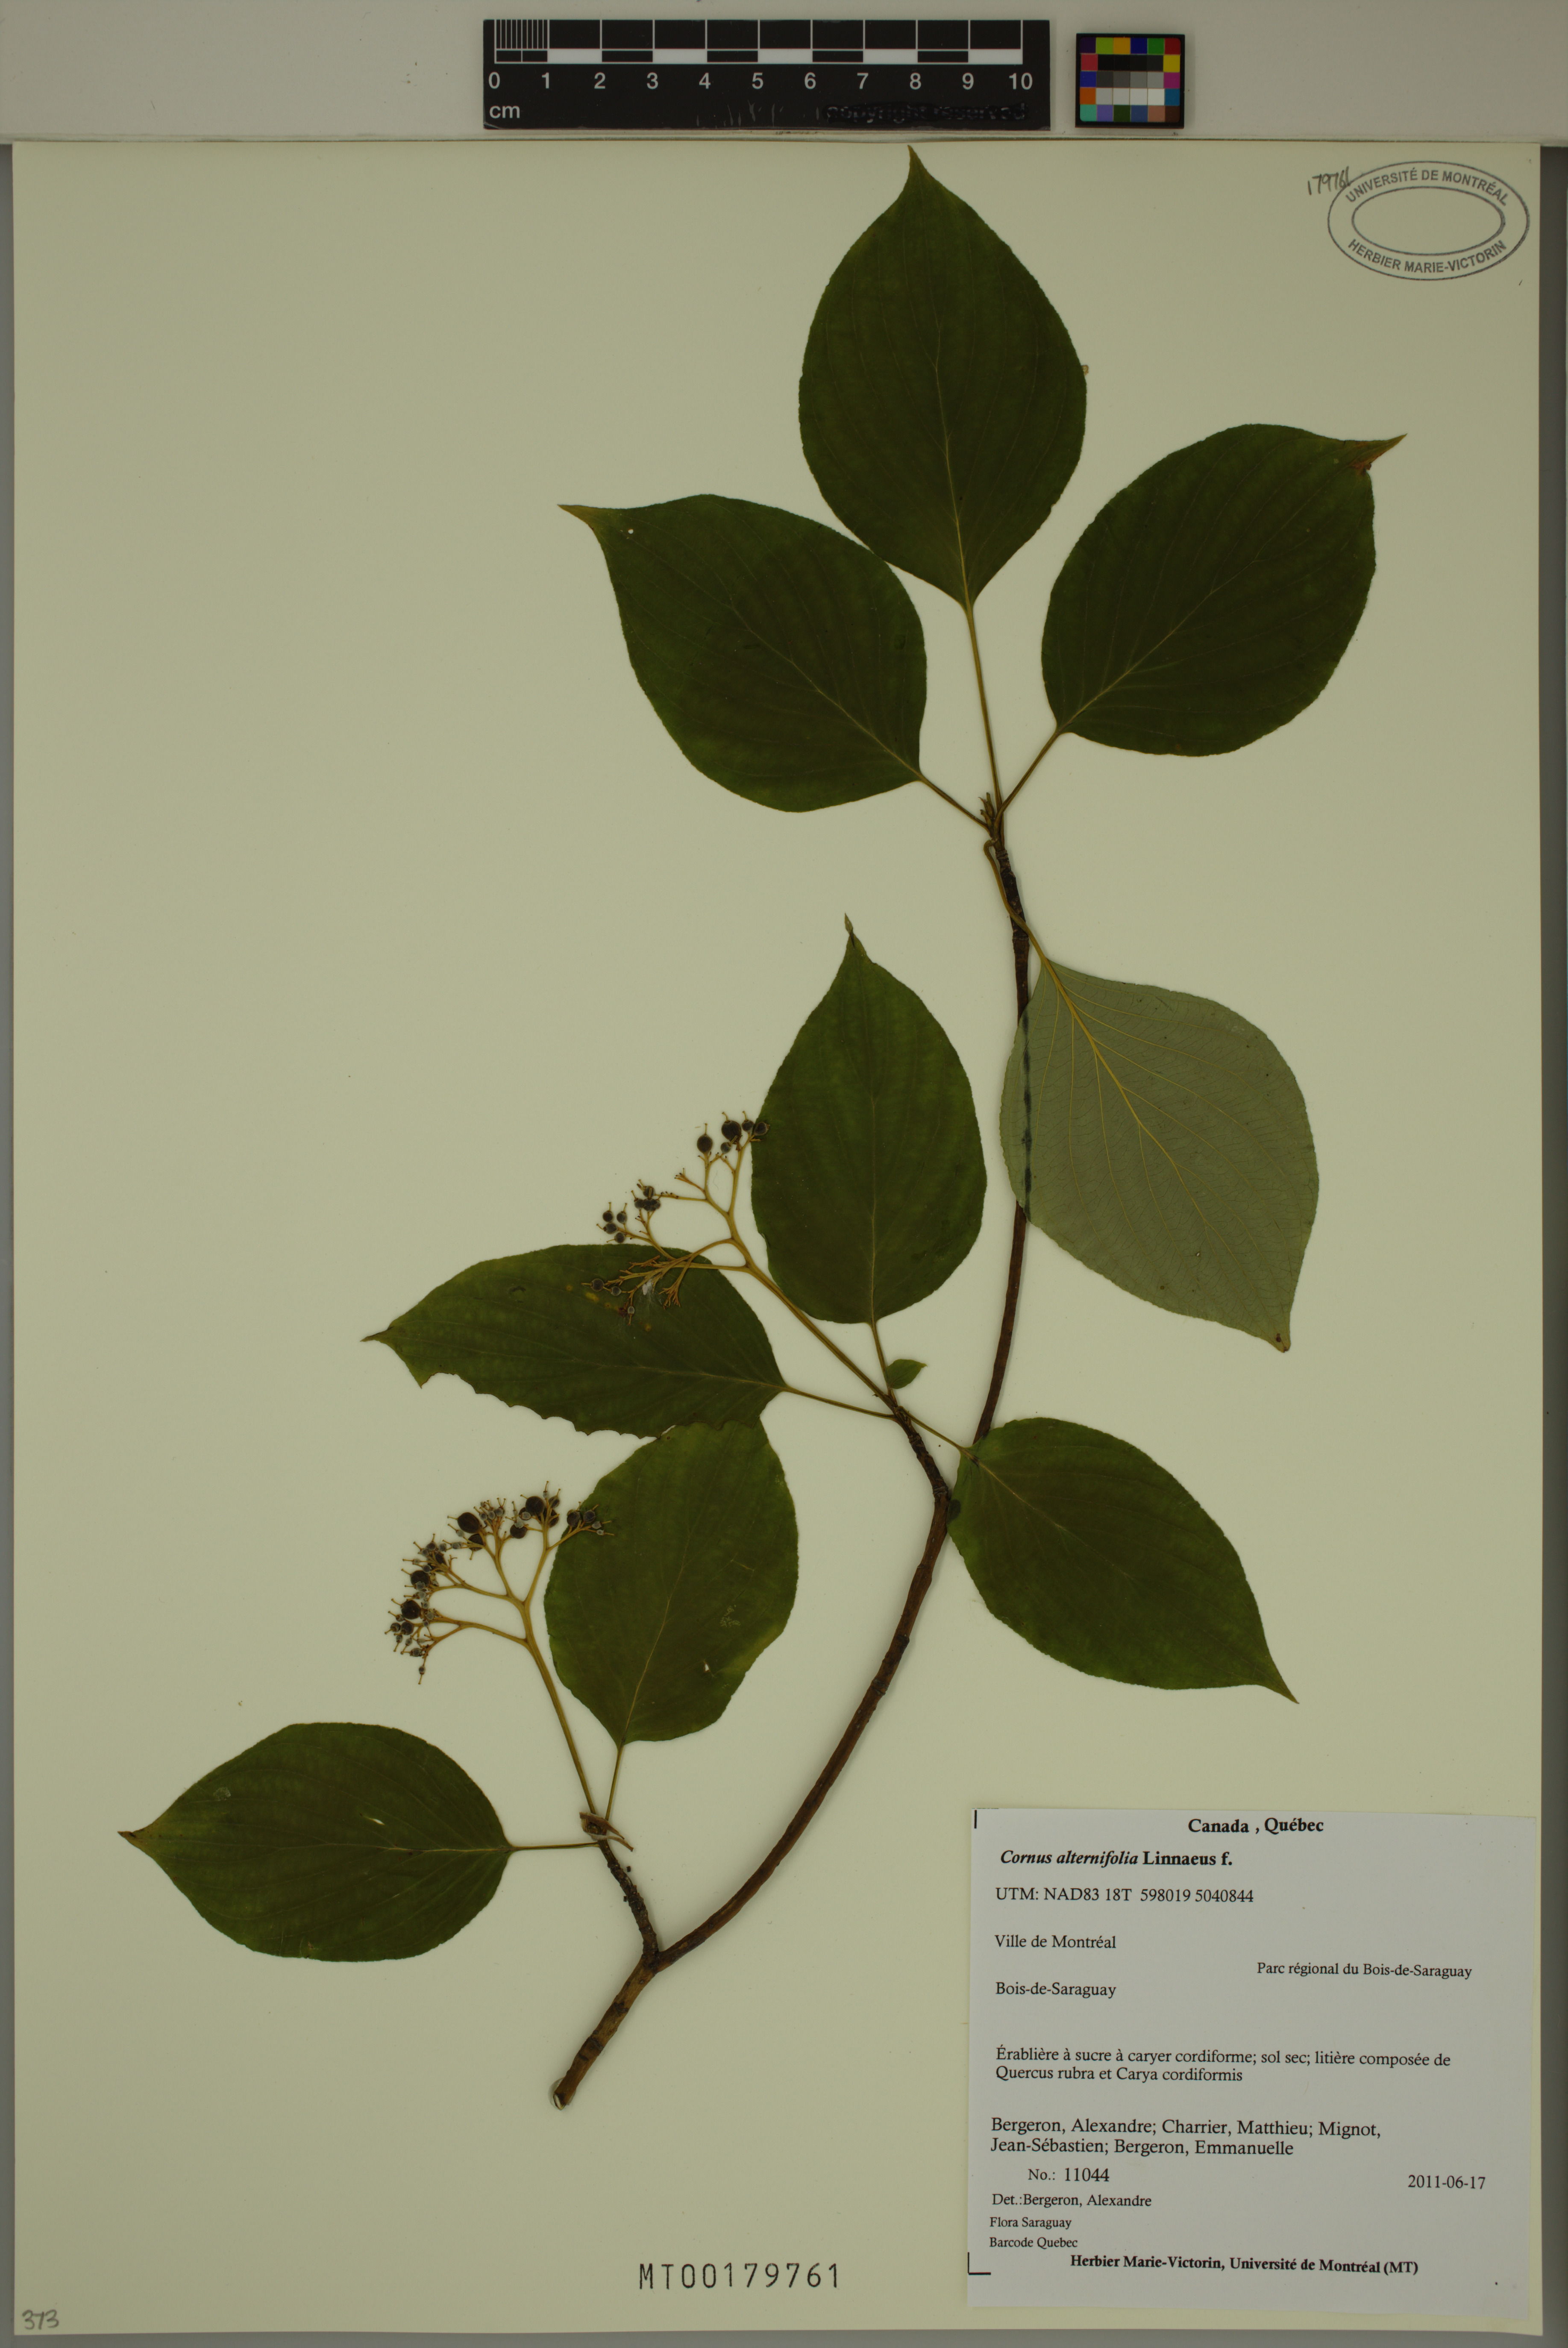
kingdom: Plantae
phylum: Tracheophyta
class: Magnoliopsida
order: Cornales
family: Cornaceae
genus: Cornus
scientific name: Cornus alternifolia
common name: Pagoda dogwood
